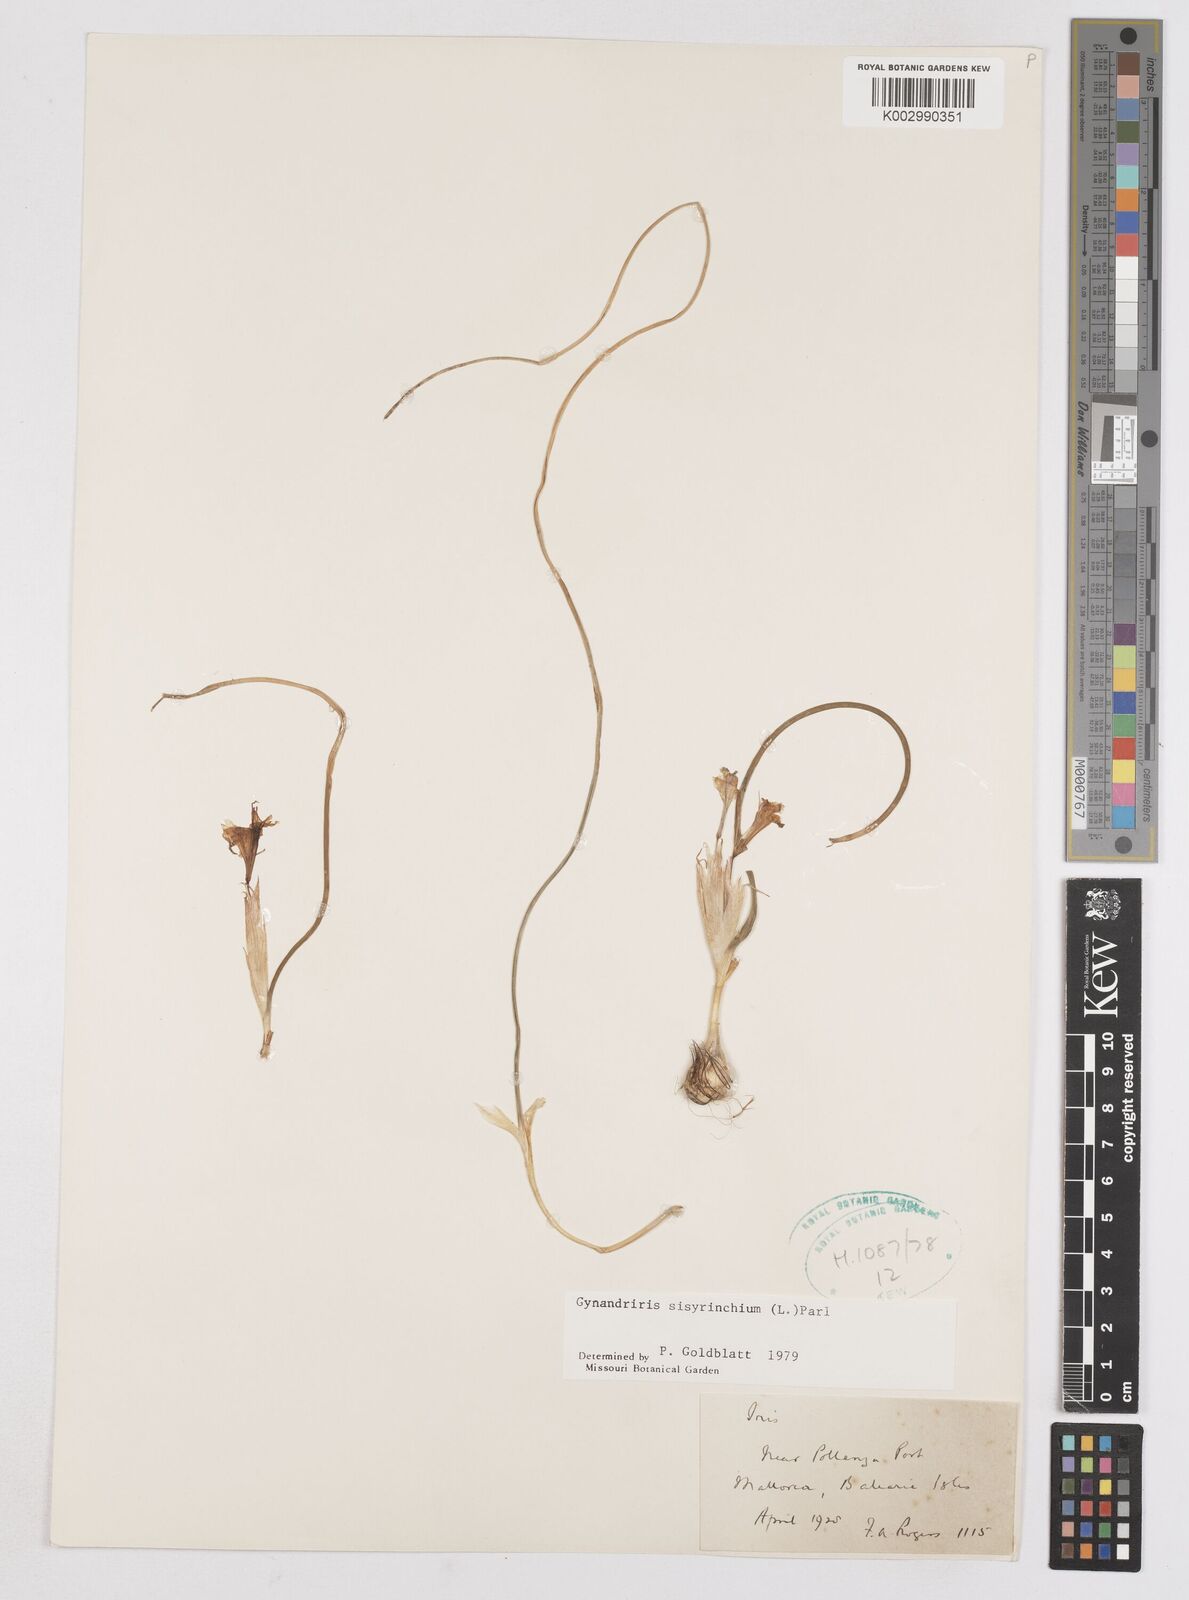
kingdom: Plantae
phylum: Tracheophyta
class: Liliopsida
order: Asparagales
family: Iridaceae
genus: Moraea
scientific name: Moraea sisyrinchium
